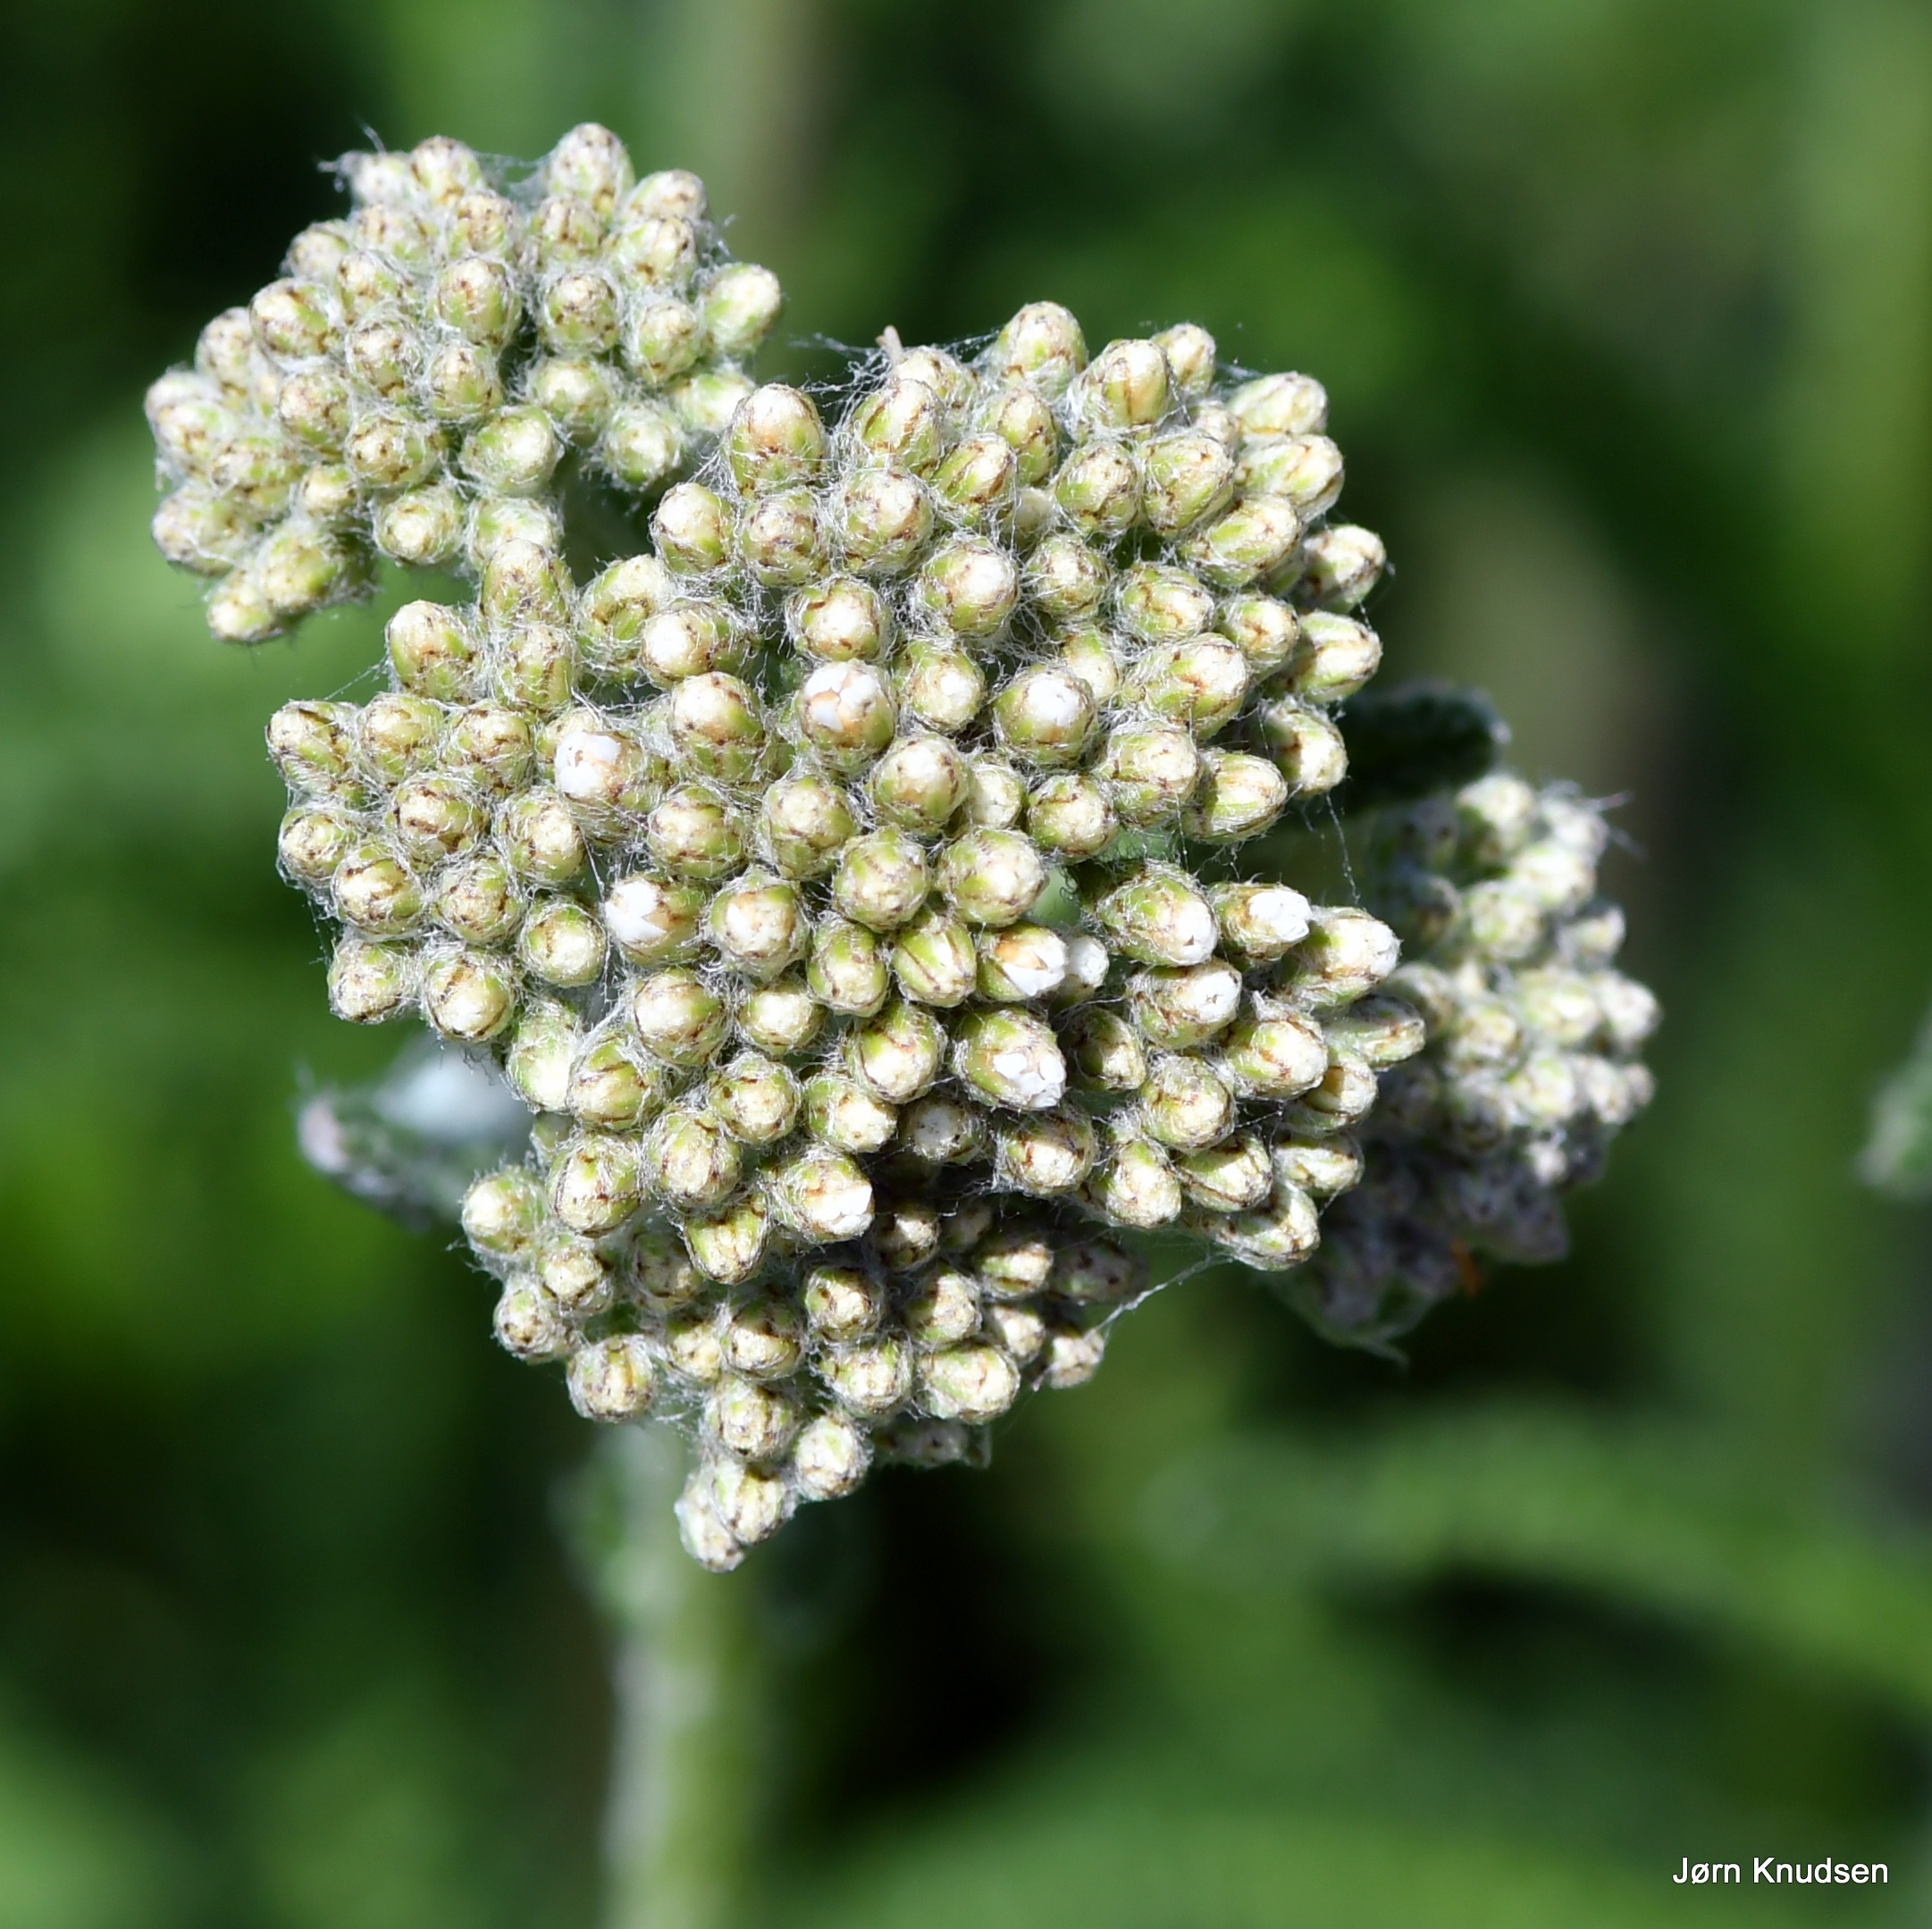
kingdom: Plantae
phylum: Tracheophyta
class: Magnoliopsida
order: Asterales
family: Asteraceae
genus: Achillea
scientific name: Achillea millefolium
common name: Almindelig røllike
